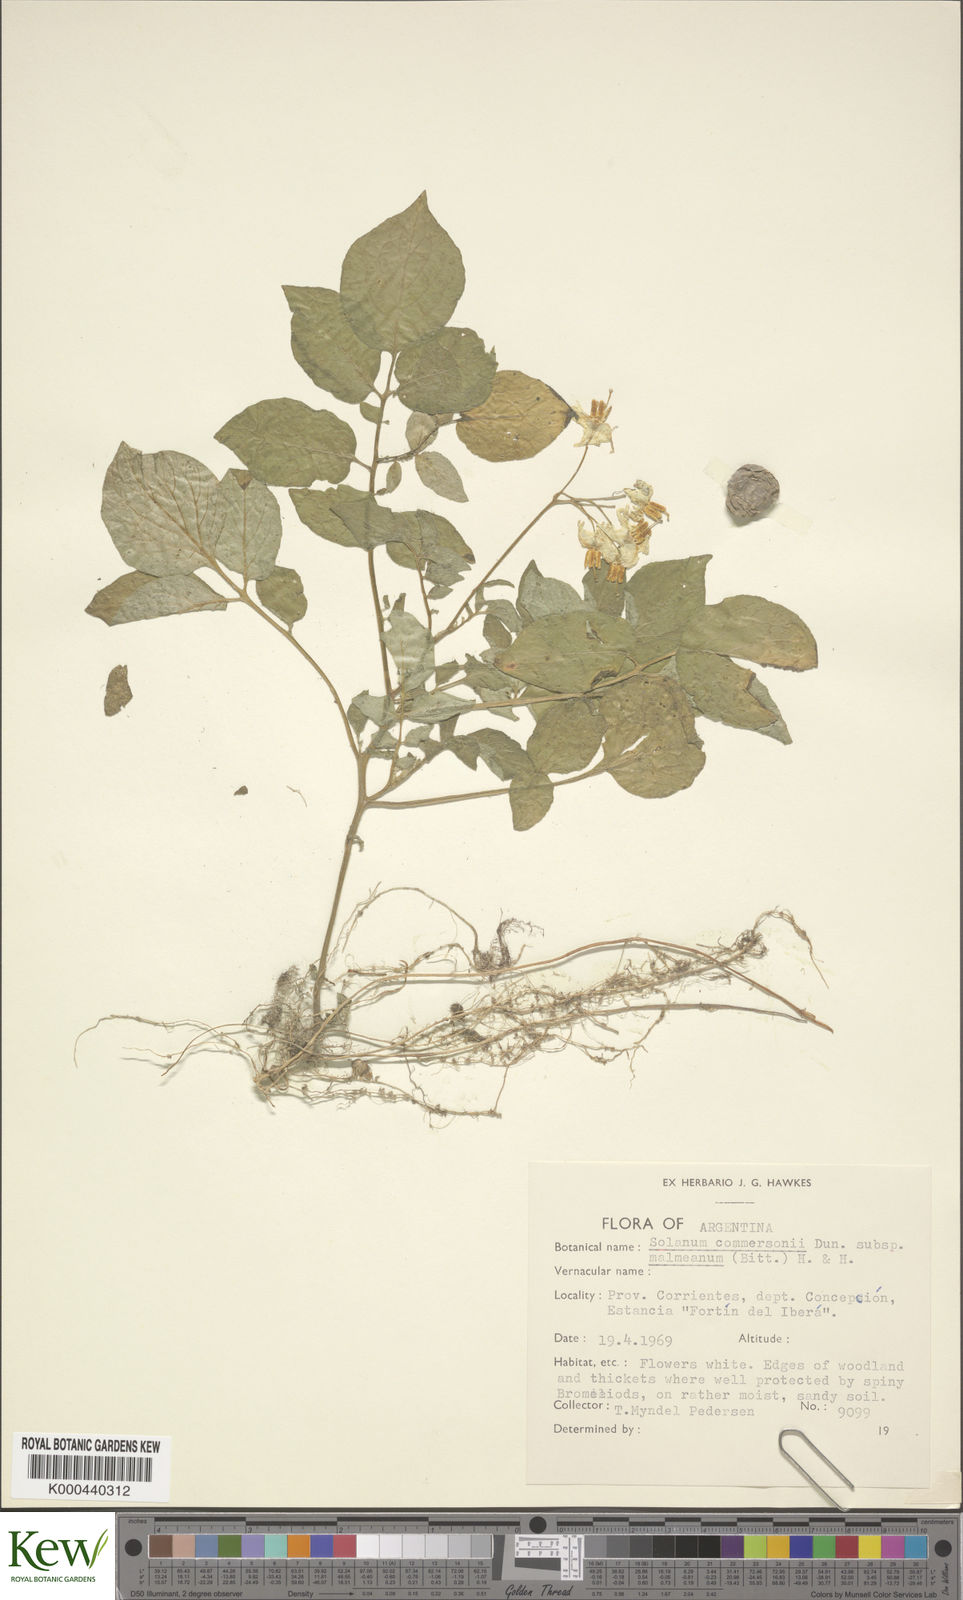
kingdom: Plantae
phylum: Tracheophyta
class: Magnoliopsida
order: Solanales
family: Solanaceae
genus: Solanum
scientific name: Solanum malmeanum
